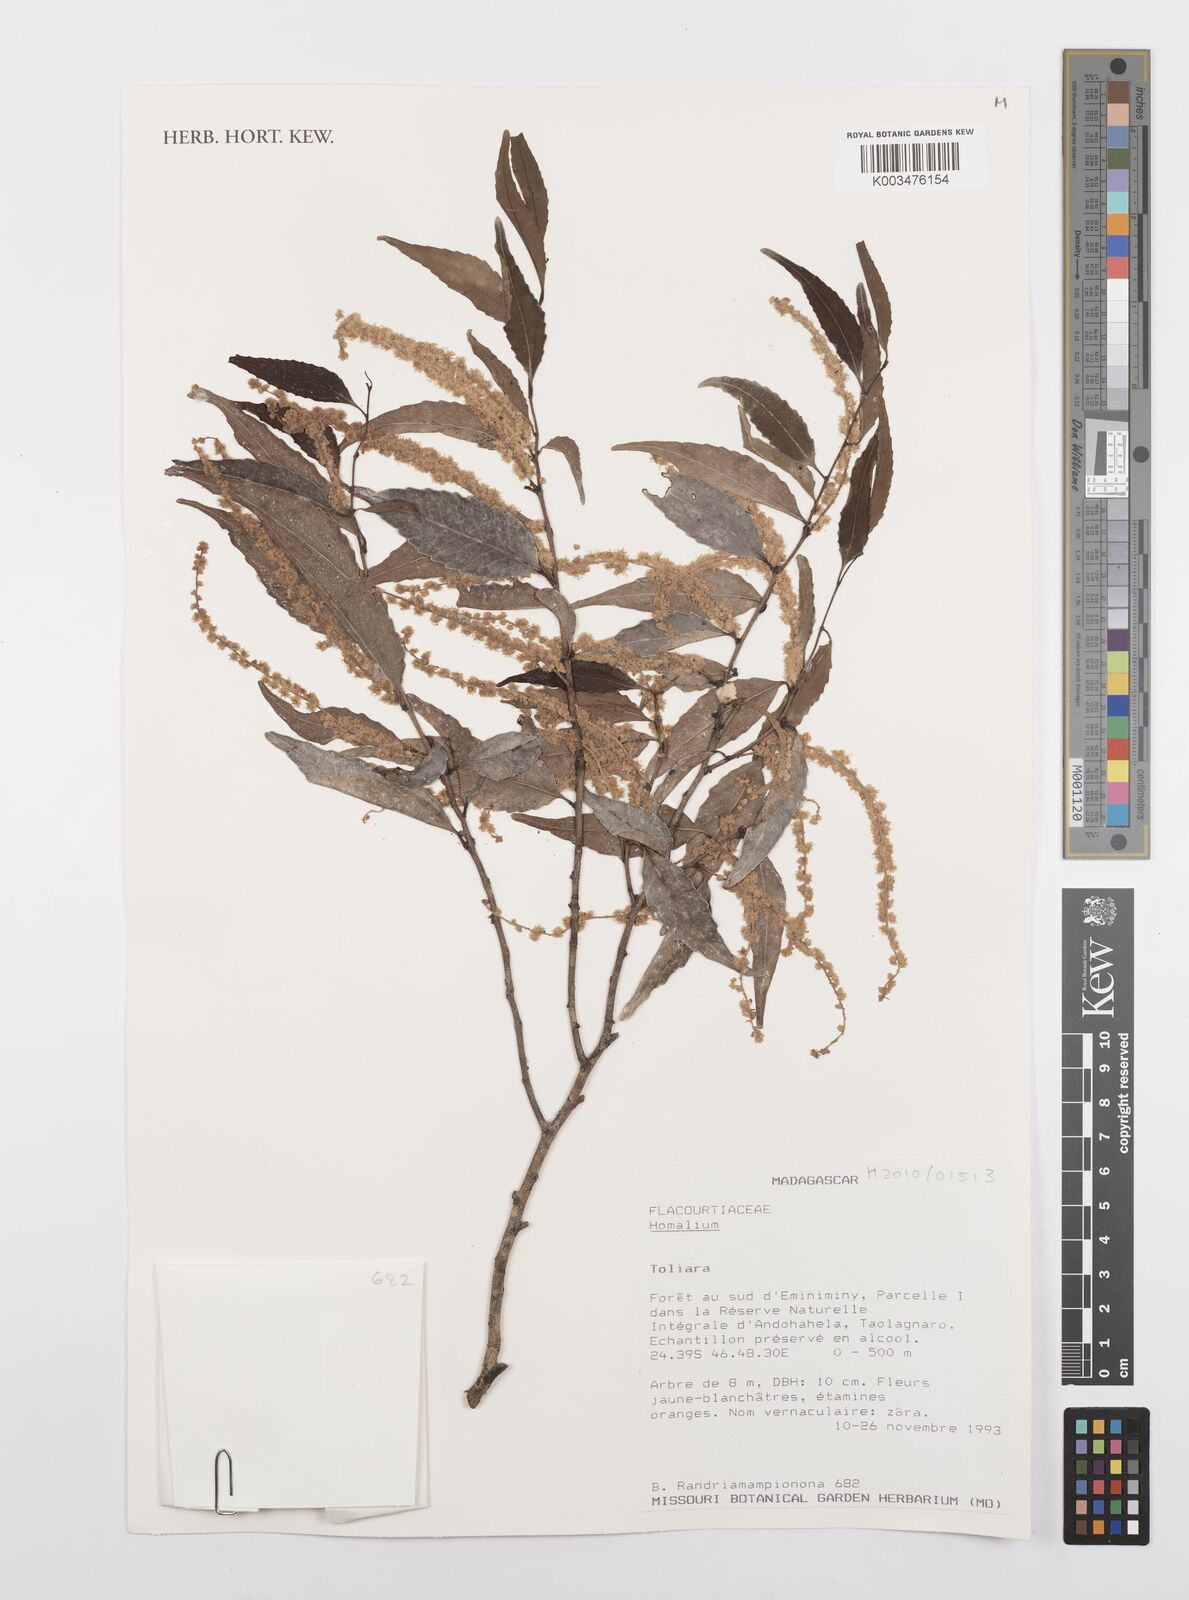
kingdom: Plantae
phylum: Tracheophyta
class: Magnoliopsida
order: Malpighiales
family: Salicaceae
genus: Homalium
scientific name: Homalium
